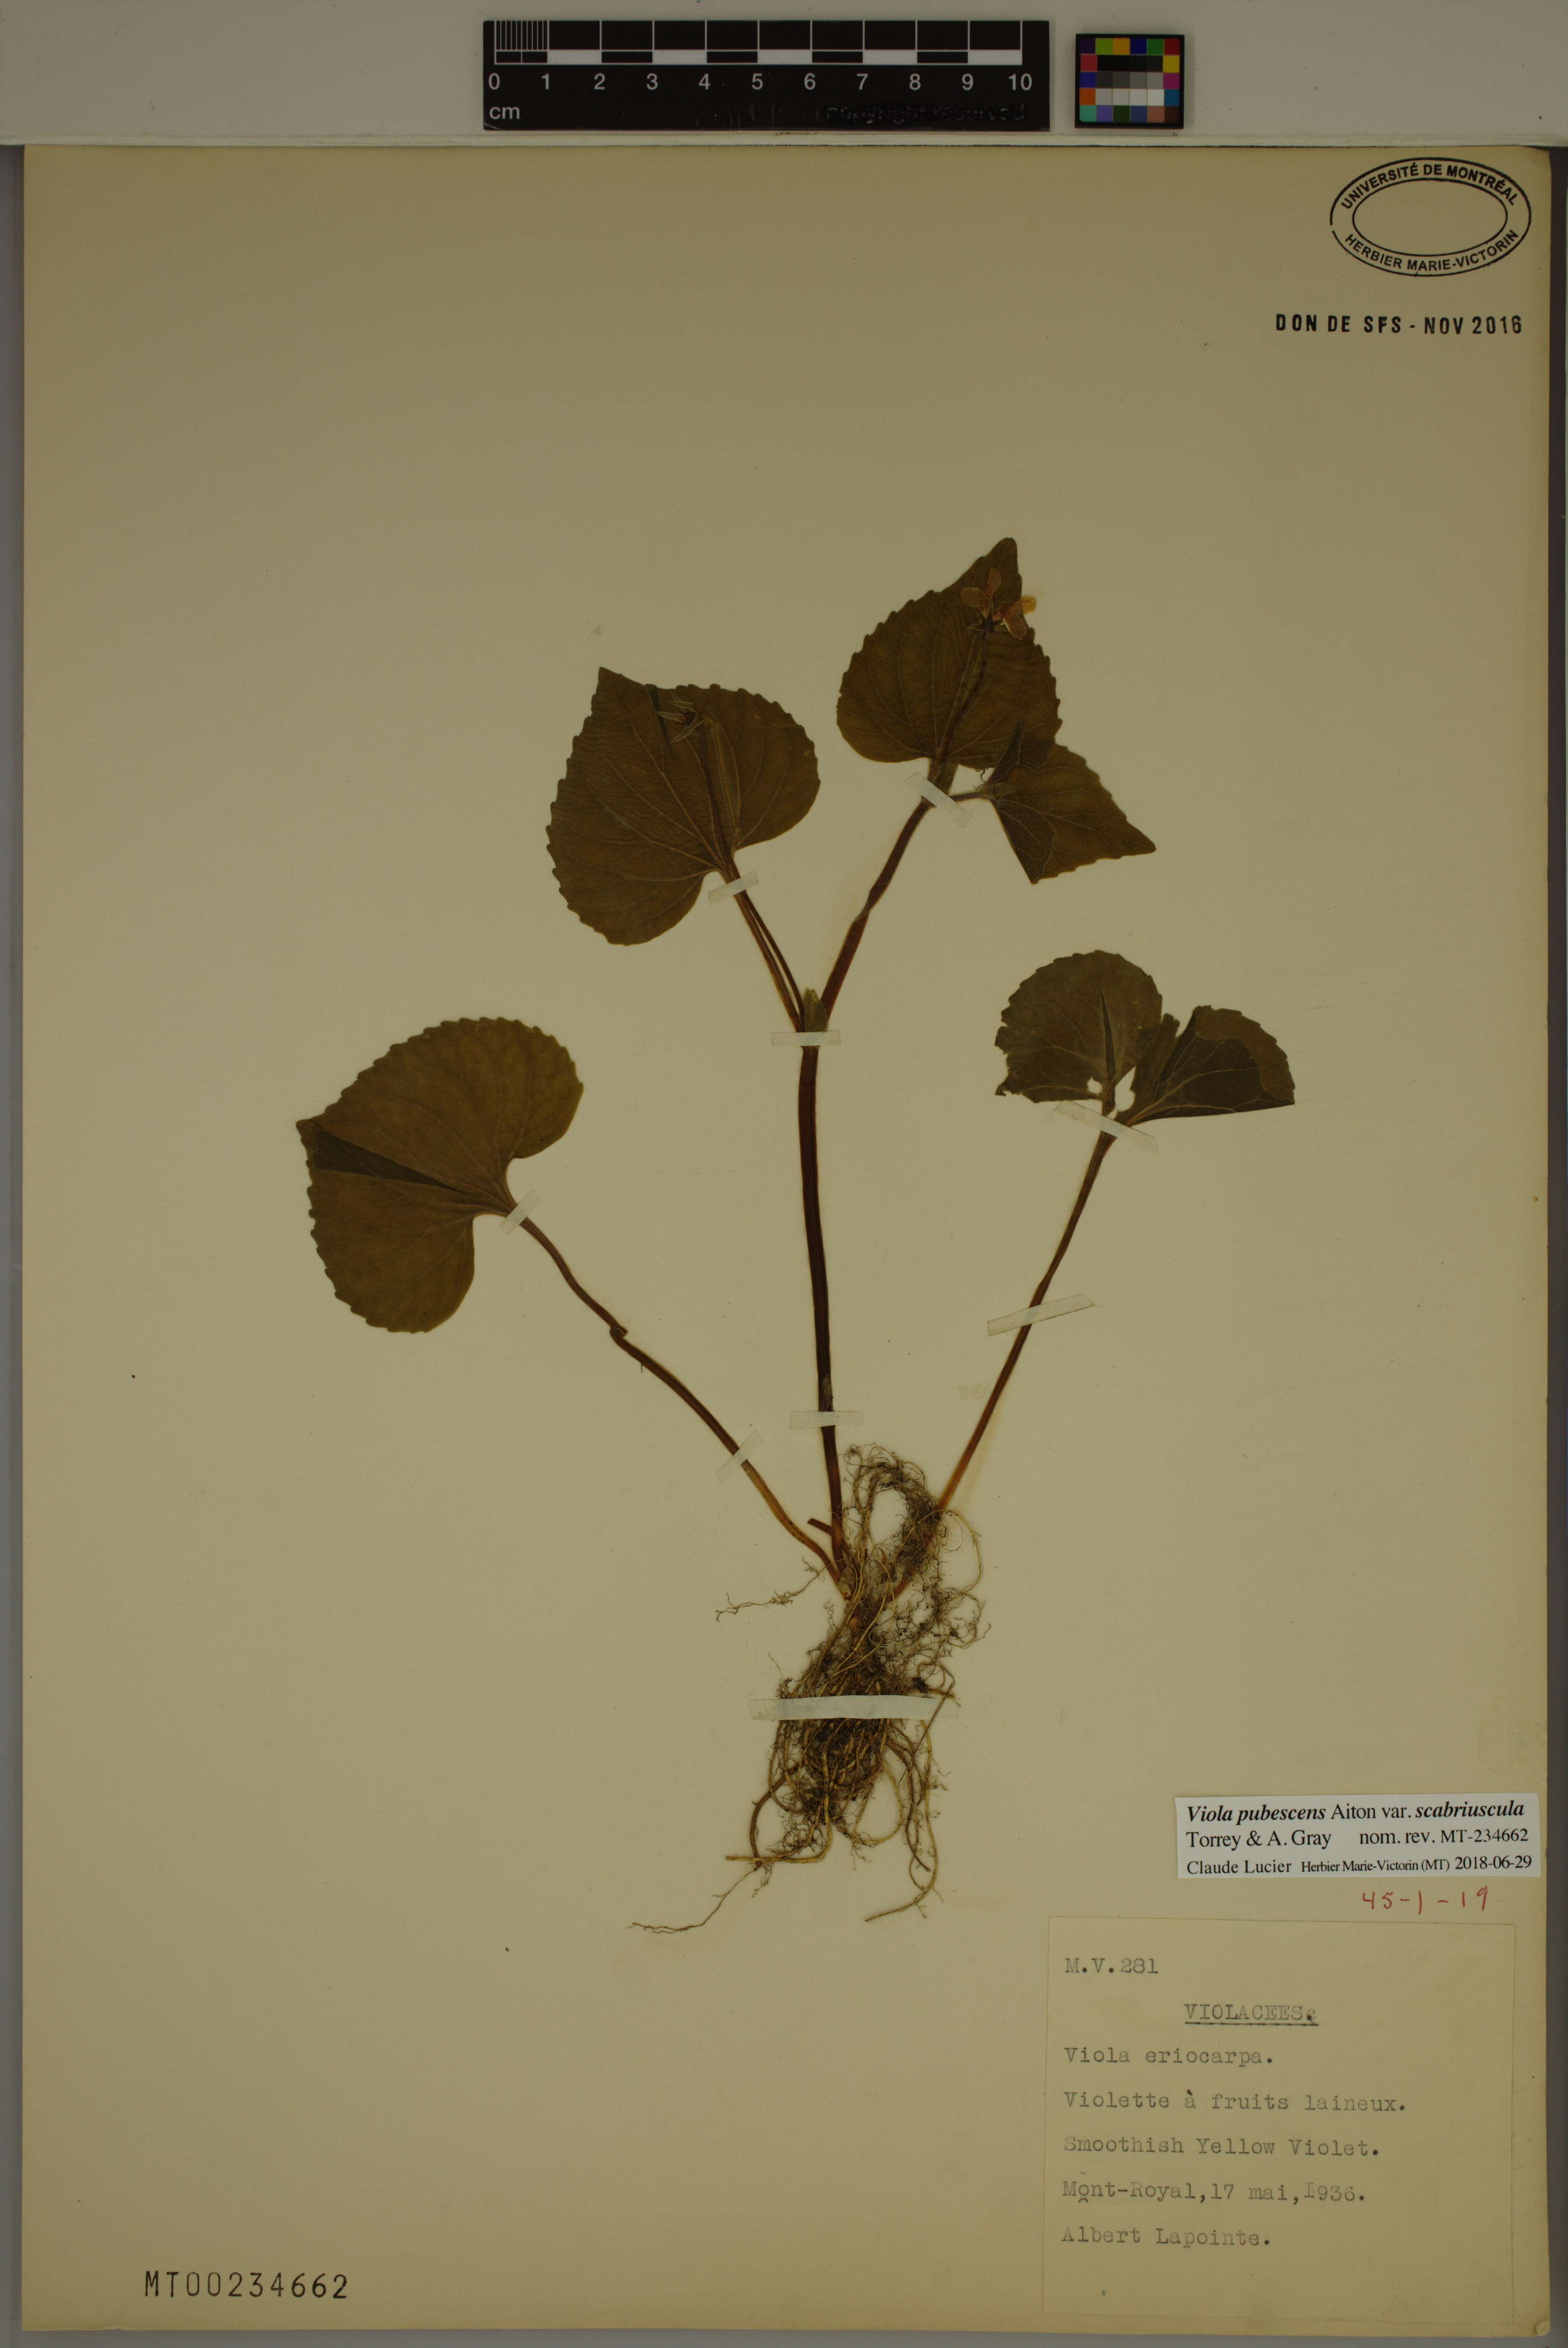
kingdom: Plantae
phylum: Tracheophyta
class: Magnoliopsida
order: Malpighiales
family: Violaceae
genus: Viola
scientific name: Viola eriocarpa
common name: Smooth yellow violet
